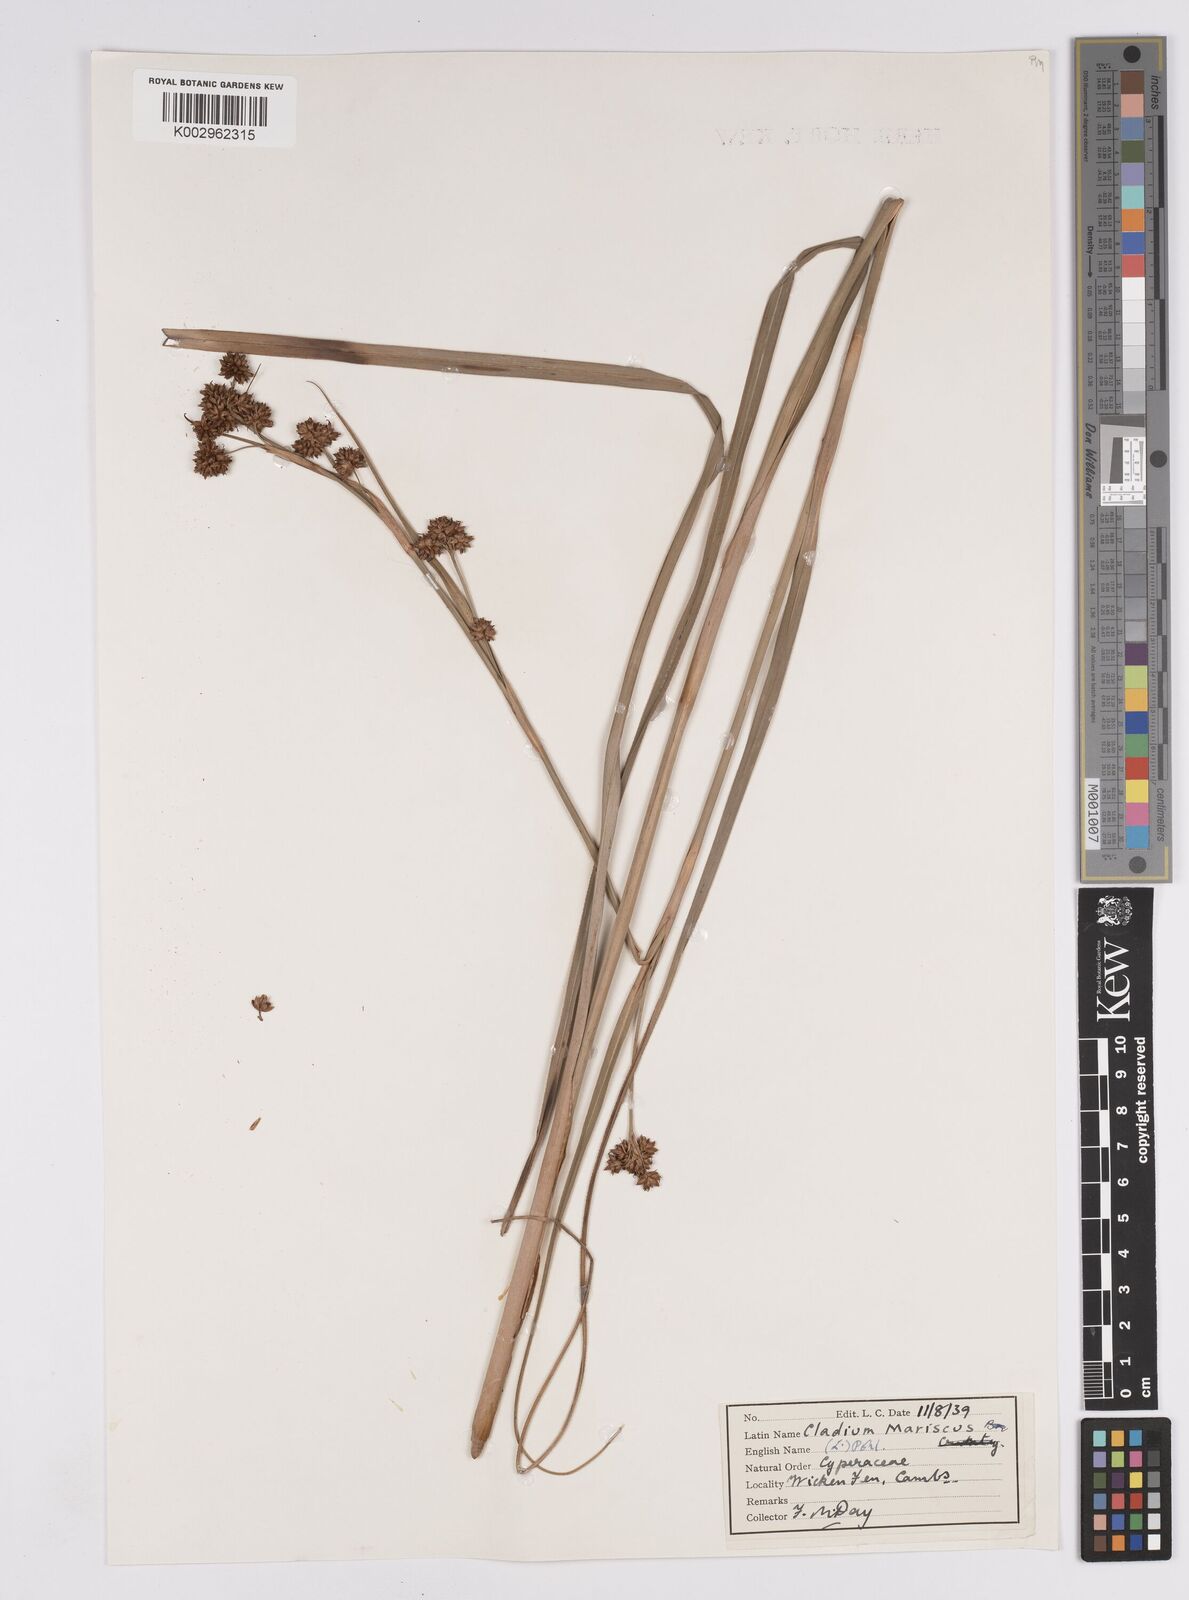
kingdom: Plantae
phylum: Tracheophyta
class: Liliopsida
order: Poales
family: Cyperaceae
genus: Cladium
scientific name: Cladium mariscus
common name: Great fen-sedge
